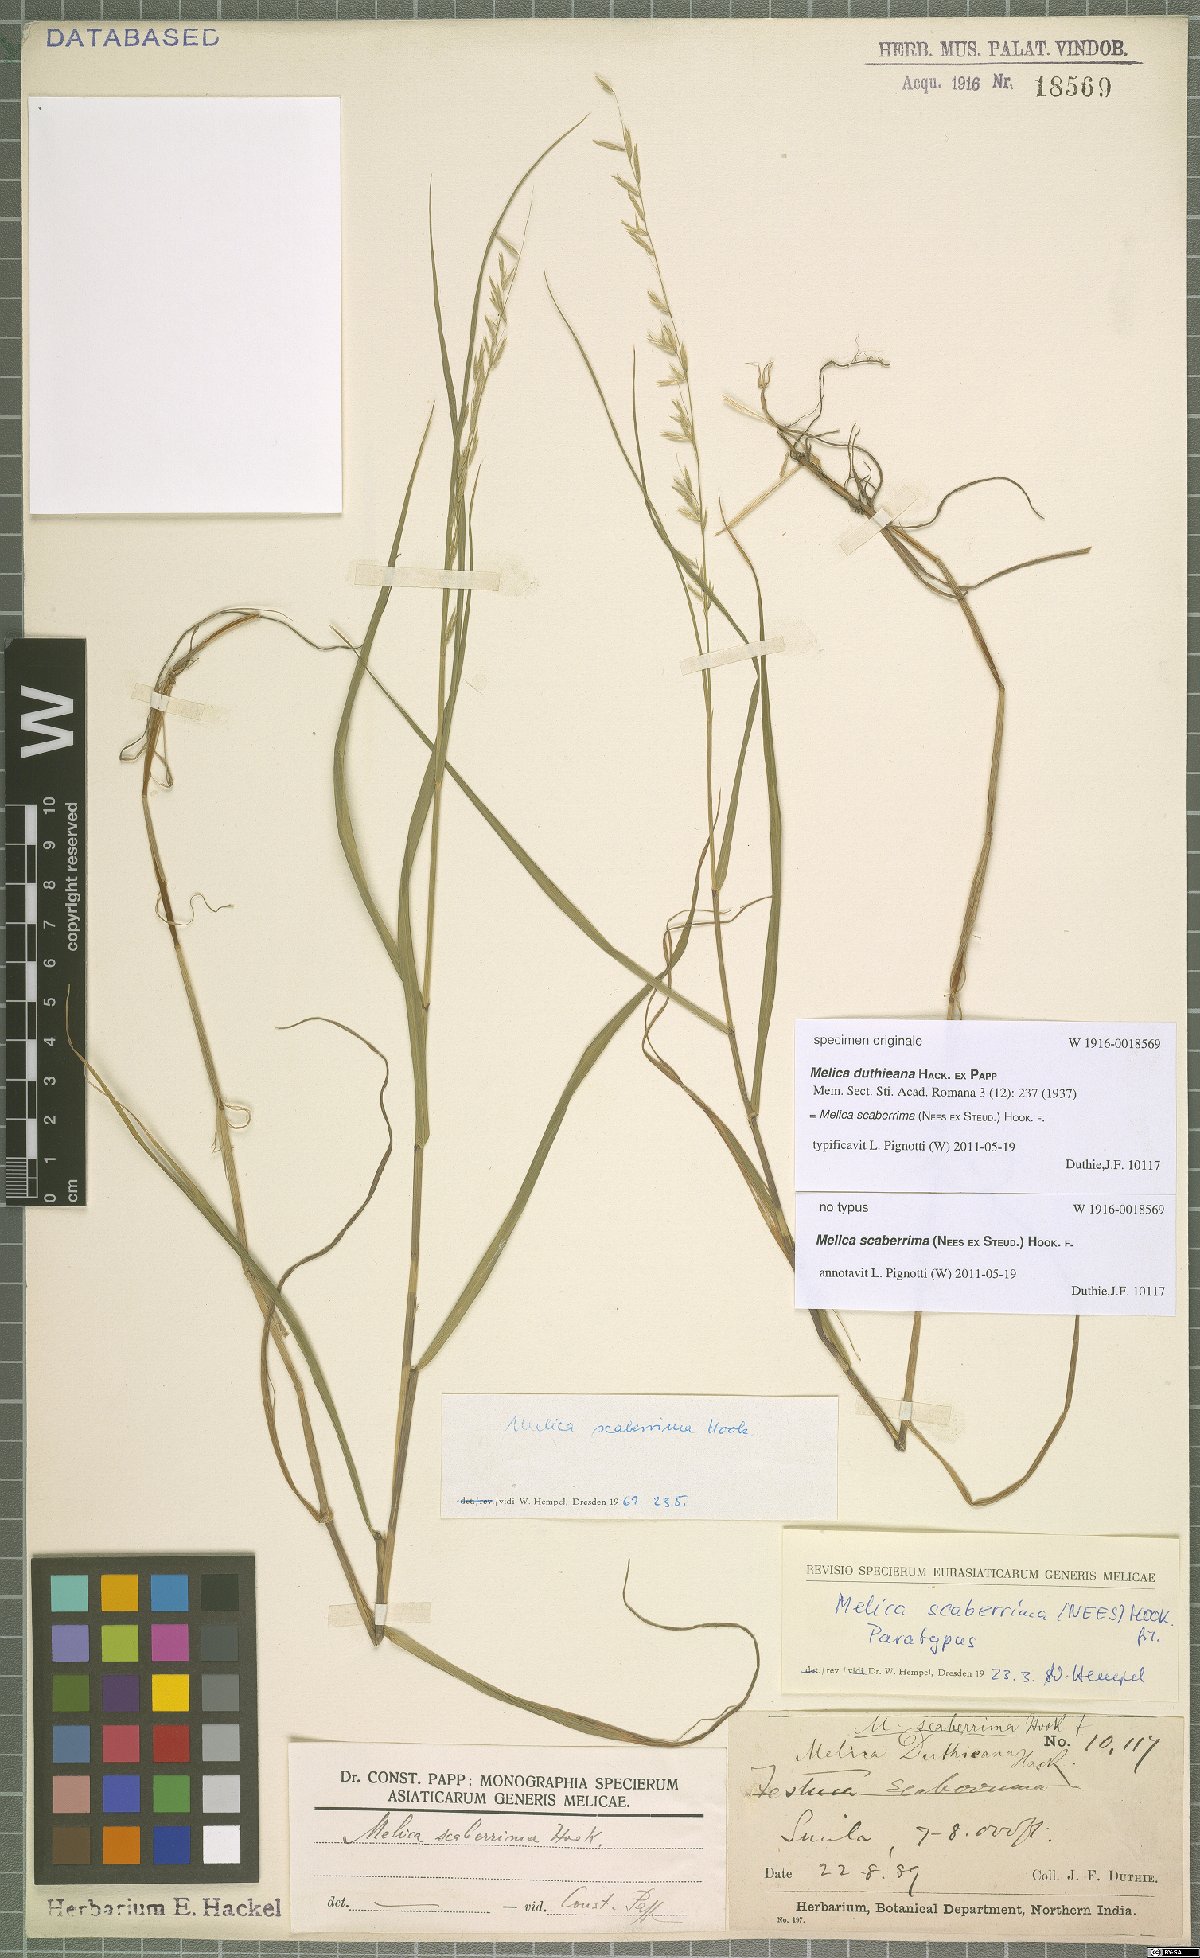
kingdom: Plantae
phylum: Tracheophyta
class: Liliopsida
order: Poales
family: Poaceae
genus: Melica
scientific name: Melica scaberrima
